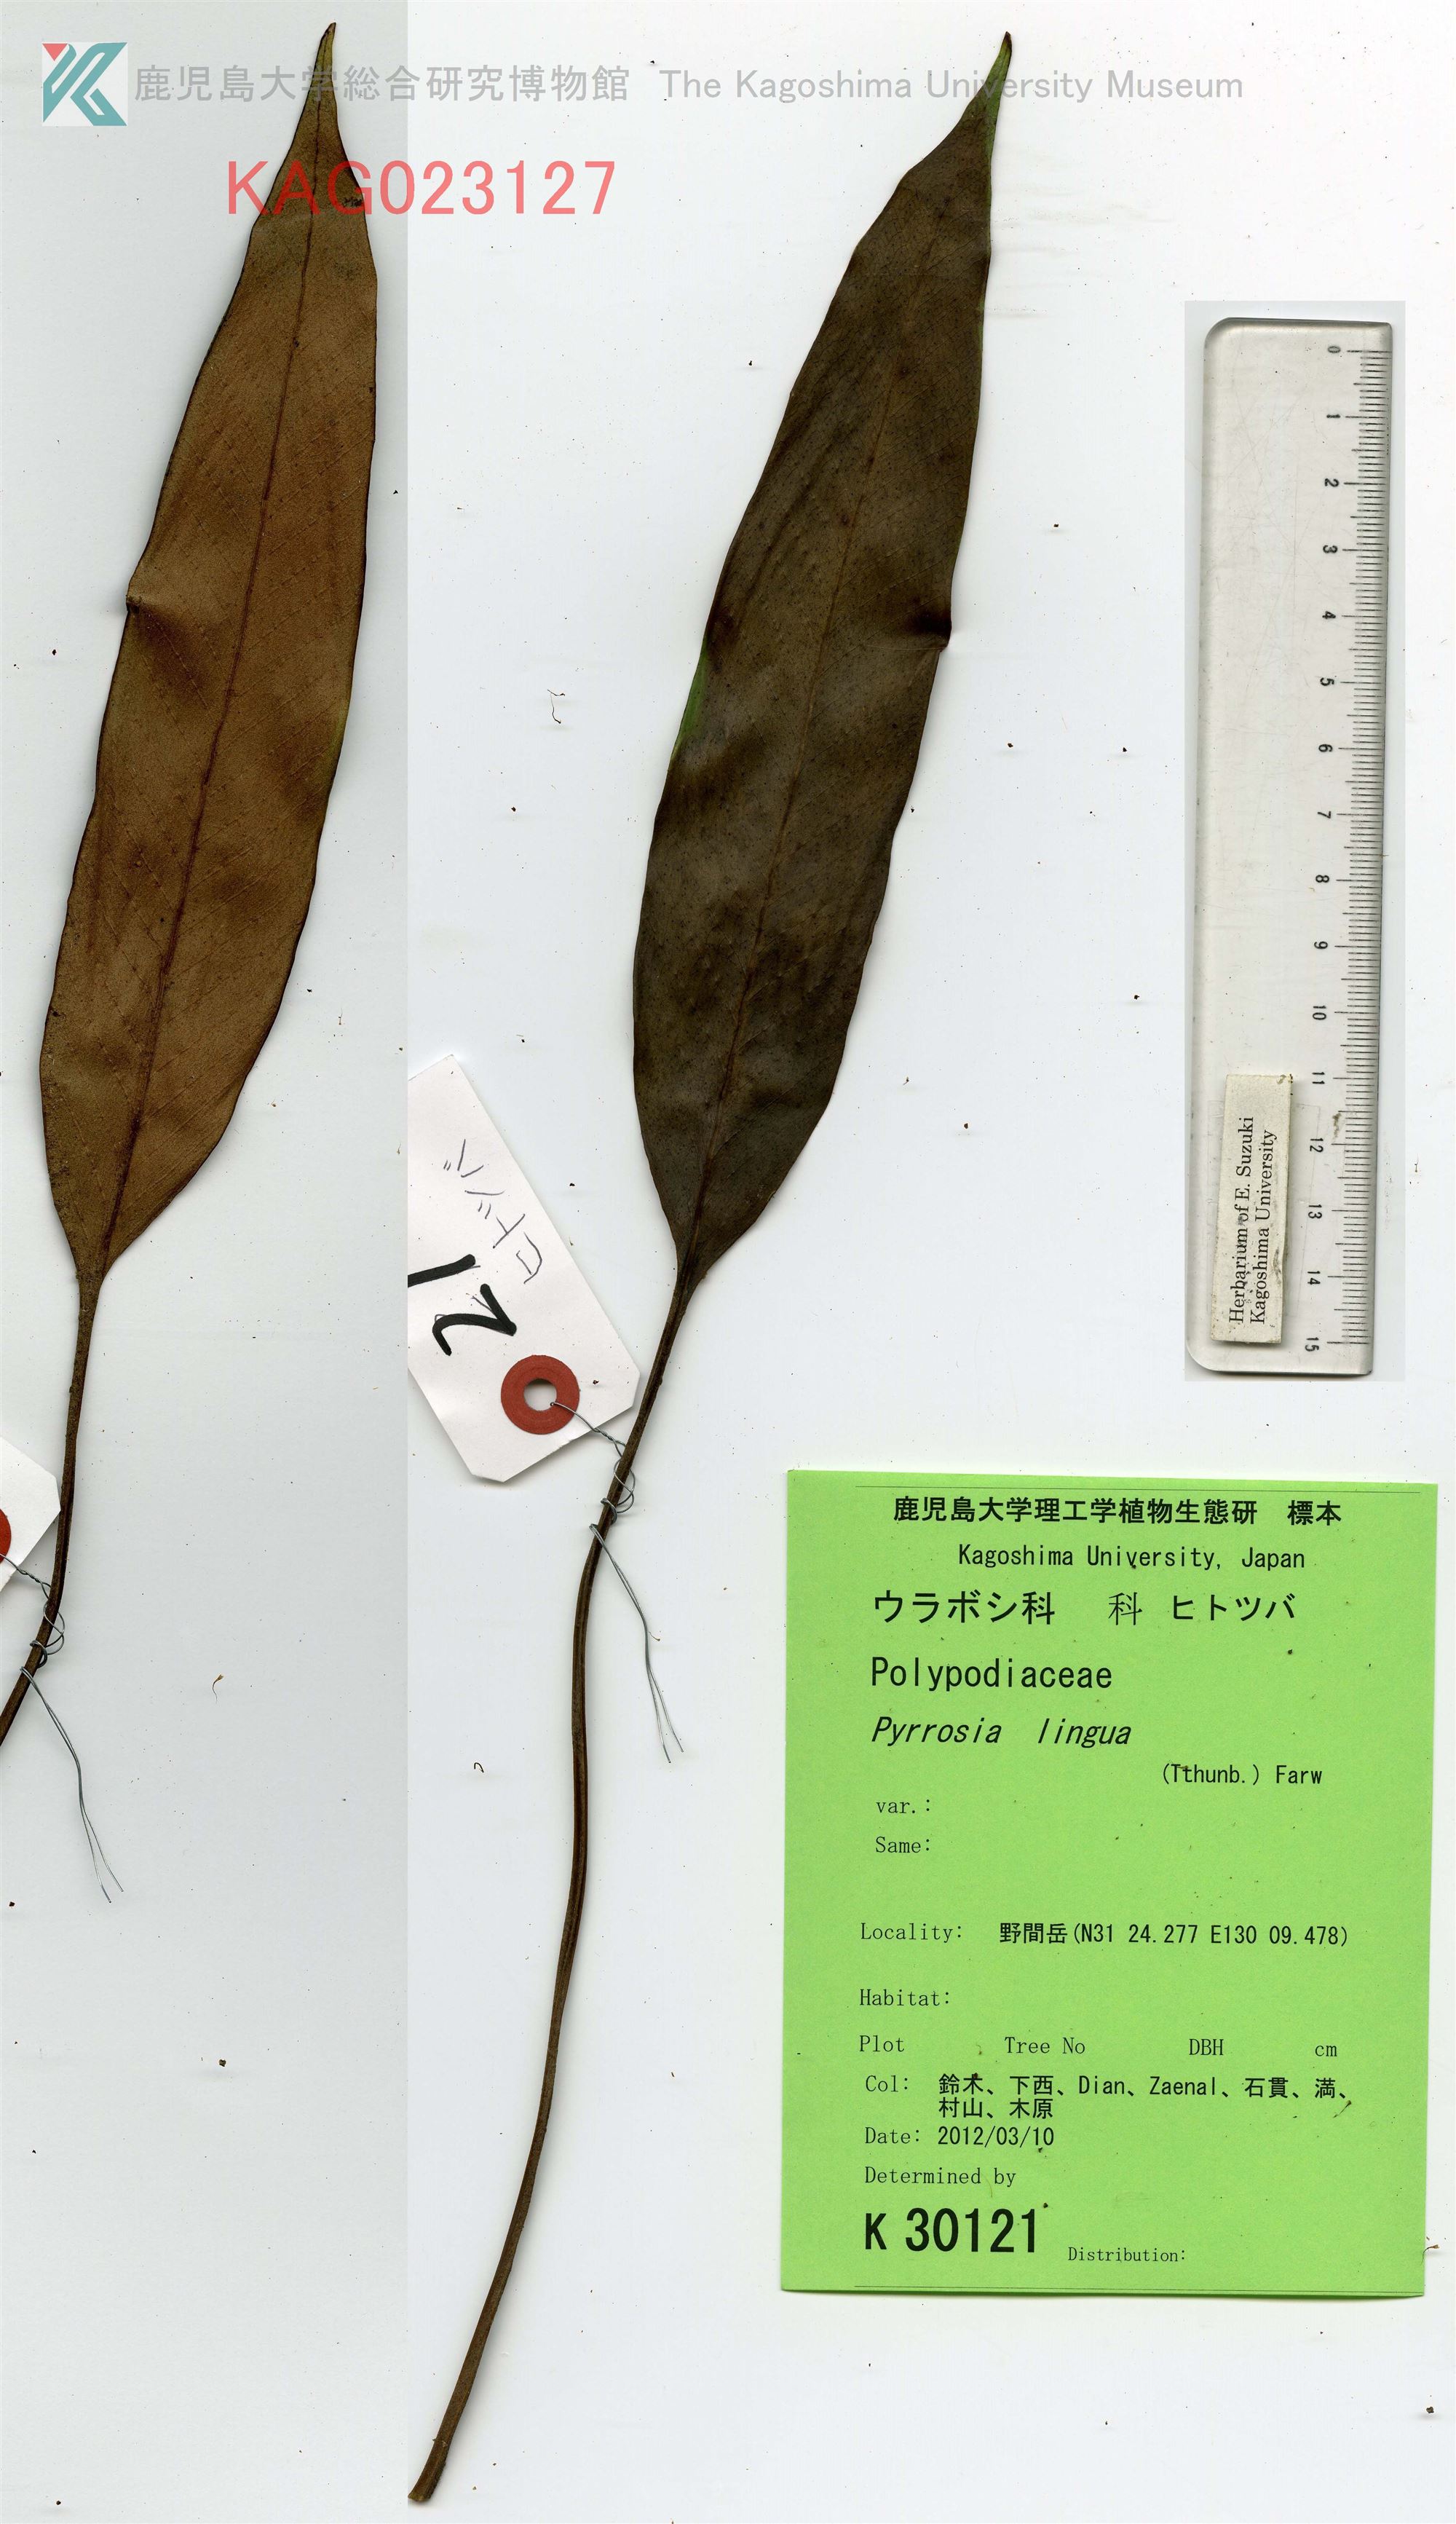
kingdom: Plantae
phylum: Tracheophyta
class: Polypodiopsida
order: Polypodiales
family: Polypodiaceae
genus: Pyrrosia
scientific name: Pyrrosia lingua
